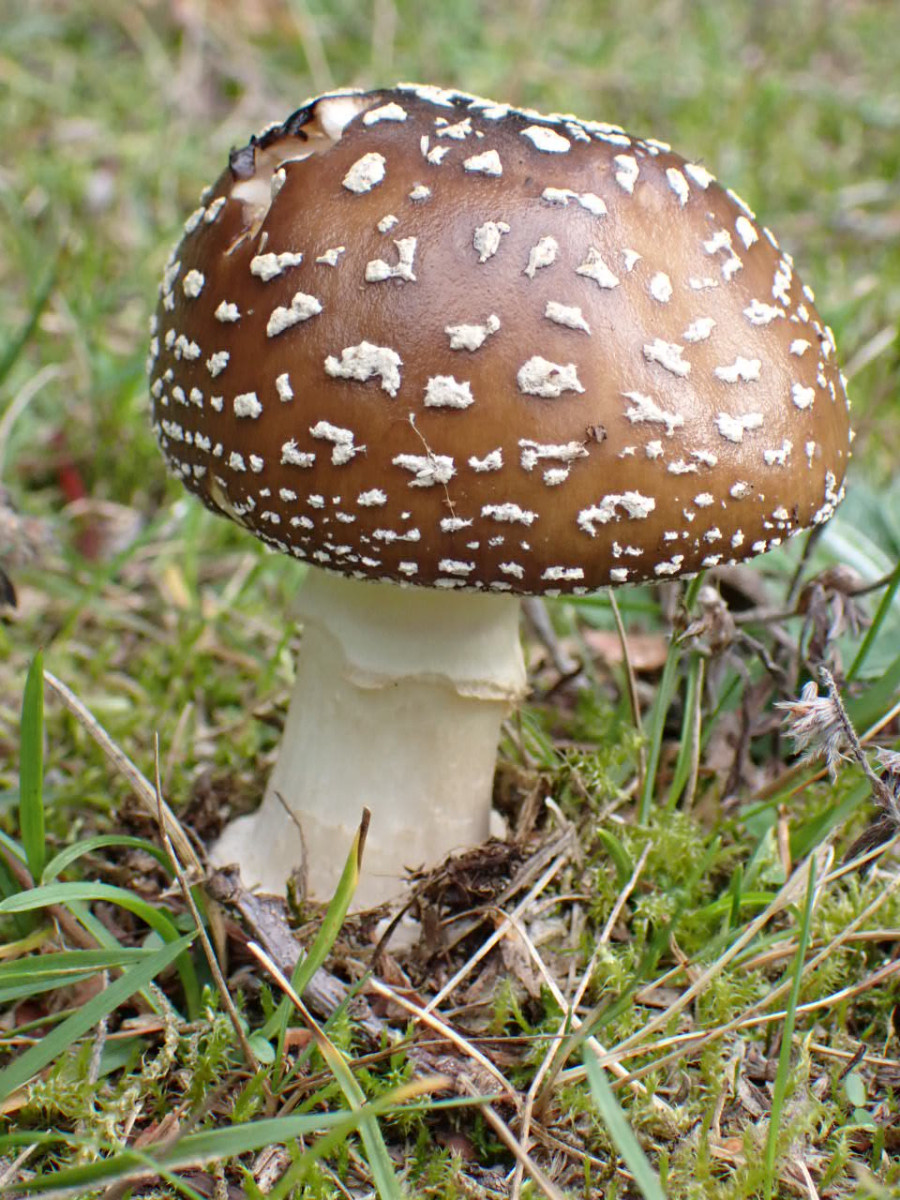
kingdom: Fungi
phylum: Basidiomycota
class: Agaricomycetes
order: Agaricales
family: Amanitaceae
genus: Amanita
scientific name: Amanita pantherina
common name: panter-fluesvamp
